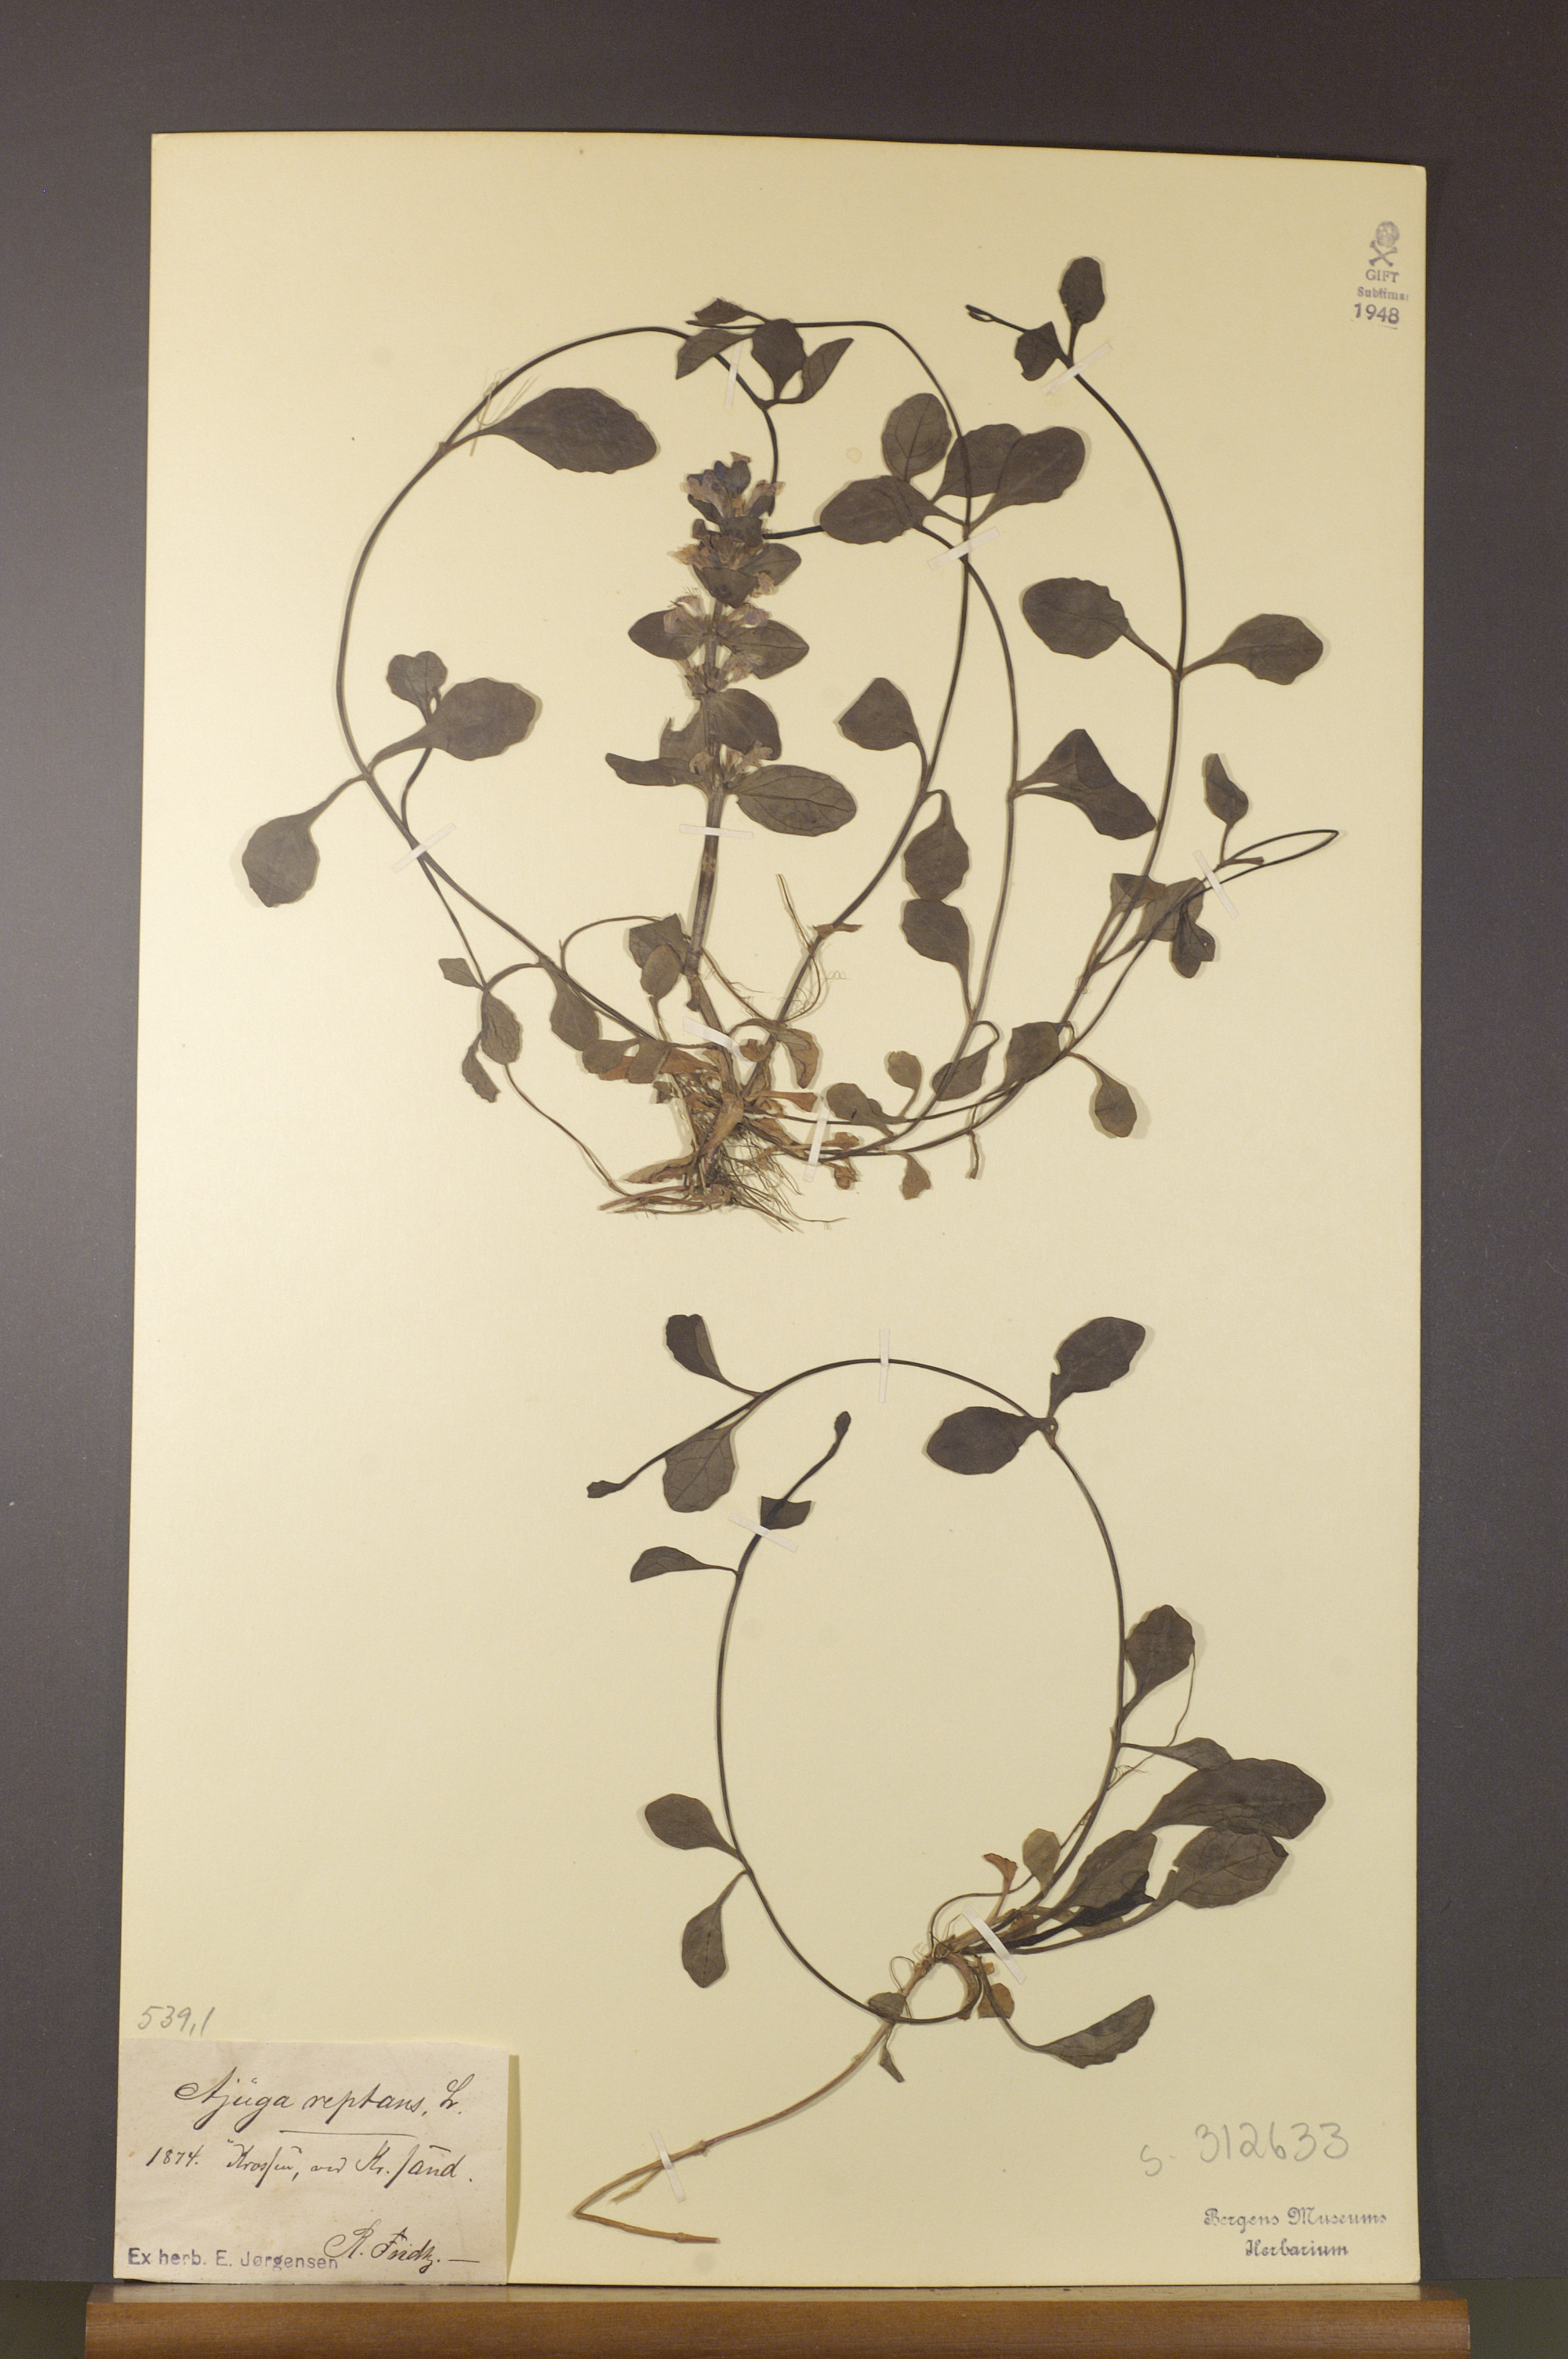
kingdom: Plantae
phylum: Tracheophyta
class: Magnoliopsida
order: Lamiales
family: Lamiaceae
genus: Ajuga
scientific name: Ajuga reptans
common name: Bugle
